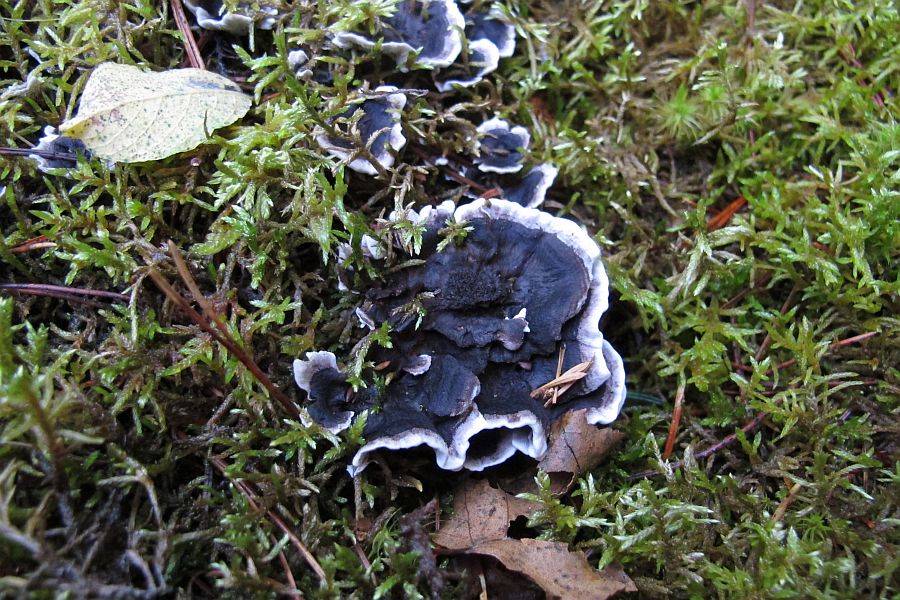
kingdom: Fungi
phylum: Basidiomycota
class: Agaricomycetes
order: Thelephorales
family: Thelephoraceae
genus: Phellodon
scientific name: Phellodon tomentosus
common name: vellugtende duftpigsvamp
